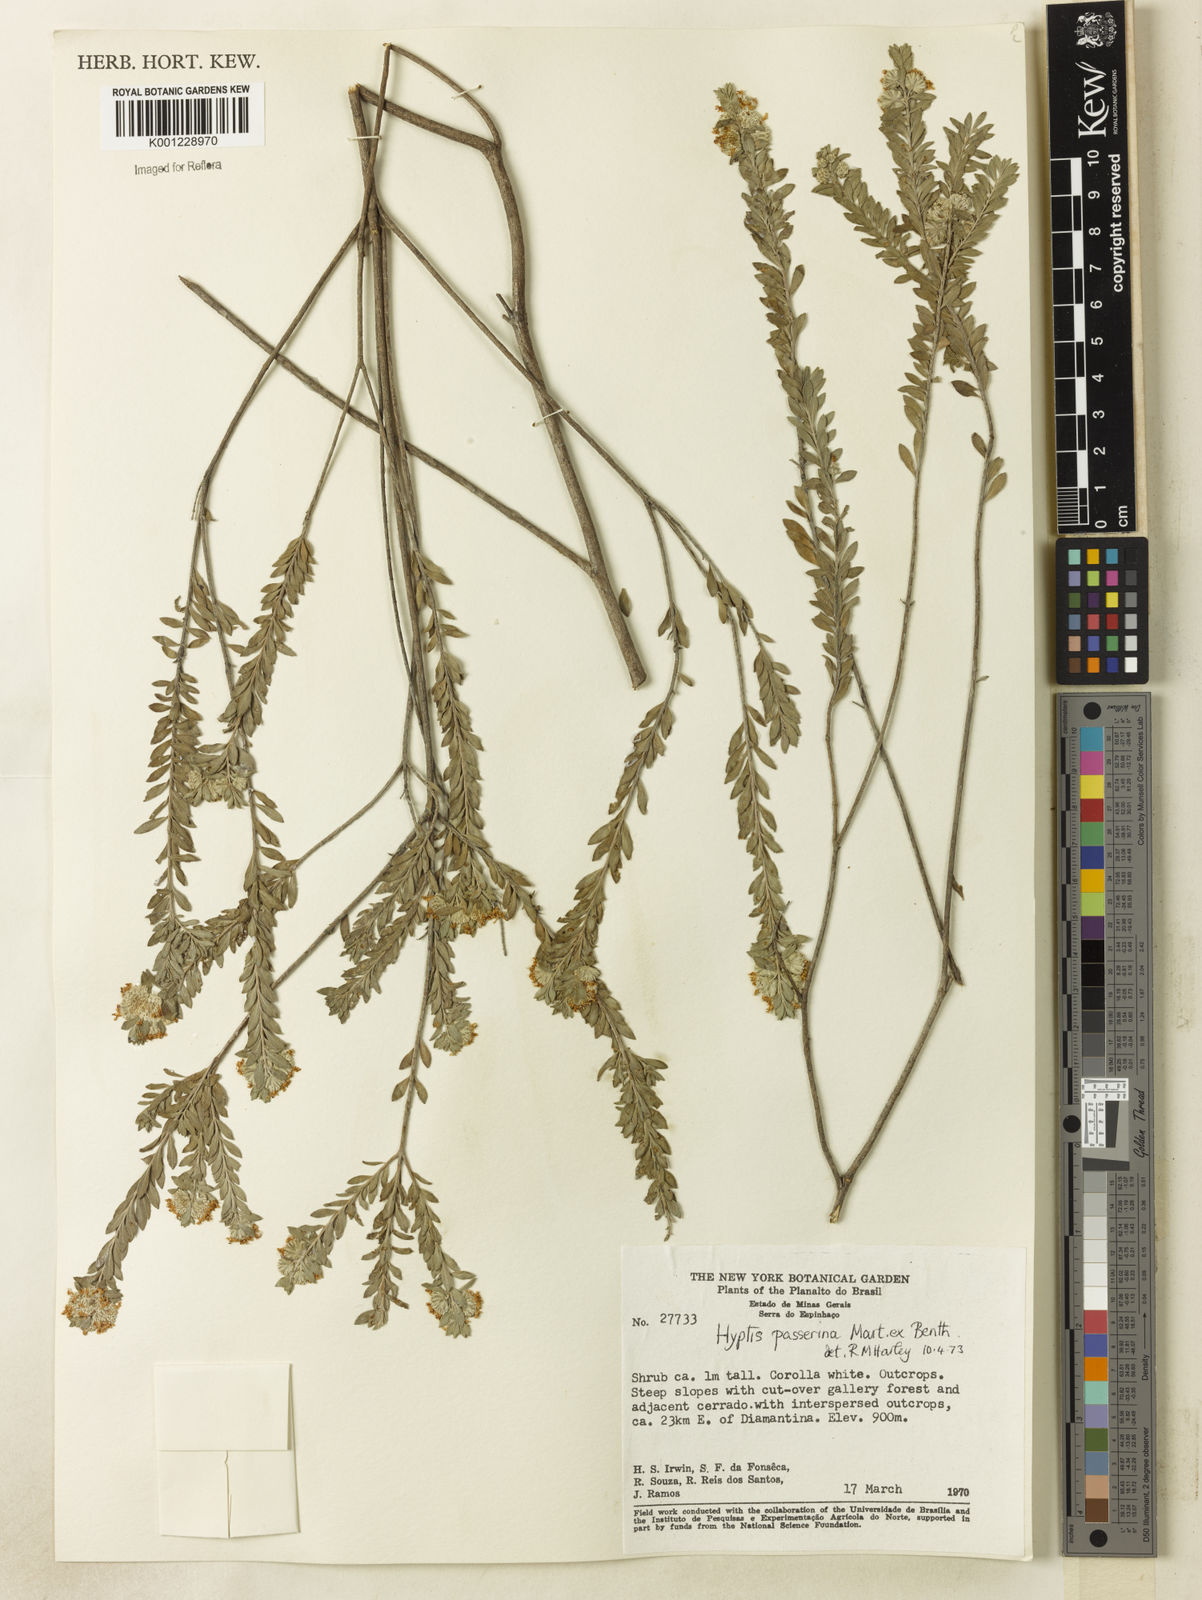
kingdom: Plantae
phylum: Tracheophyta
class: Magnoliopsida
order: Lamiales
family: Lamiaceae
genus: Hyptis
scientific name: Hyptis passerina
